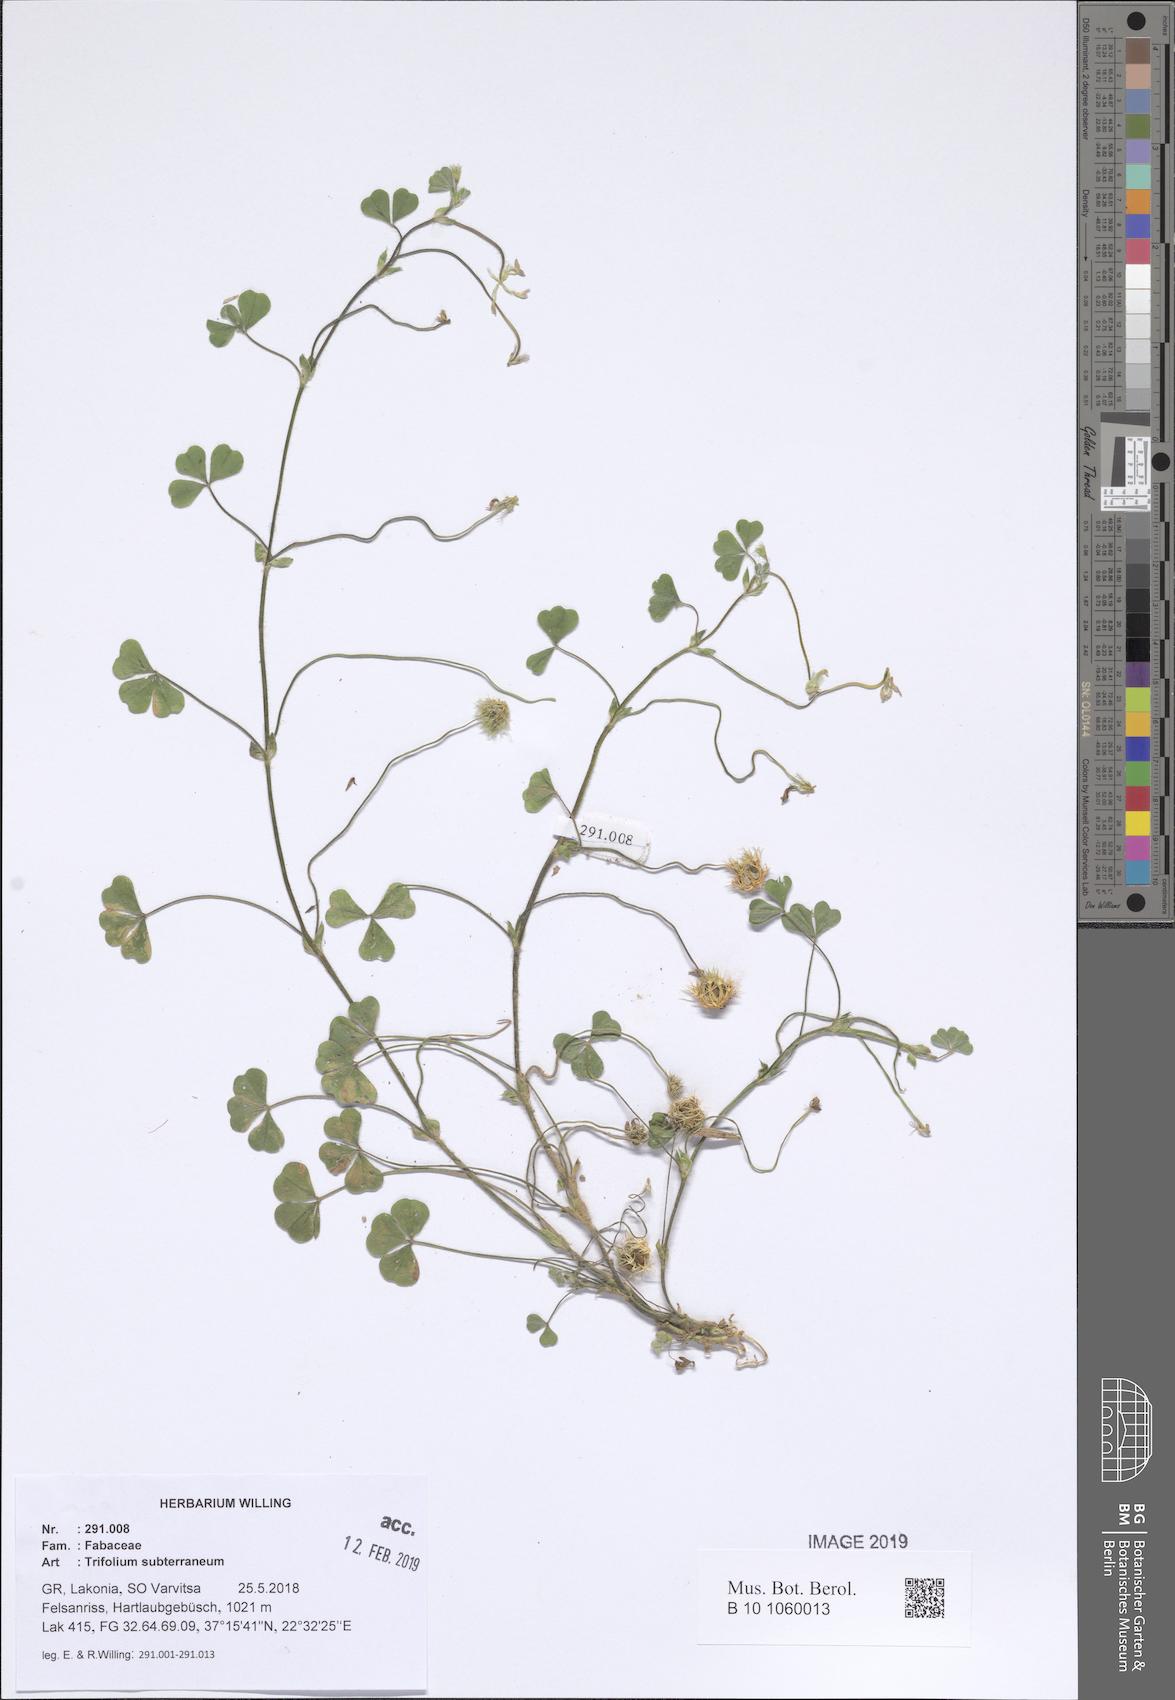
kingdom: Plantae
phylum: Tracheophyta
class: Magnoliopsida
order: Fabales
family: Fabaceae
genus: Trifolium
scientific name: Trifolium subterraneum
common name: Subterranean clover
